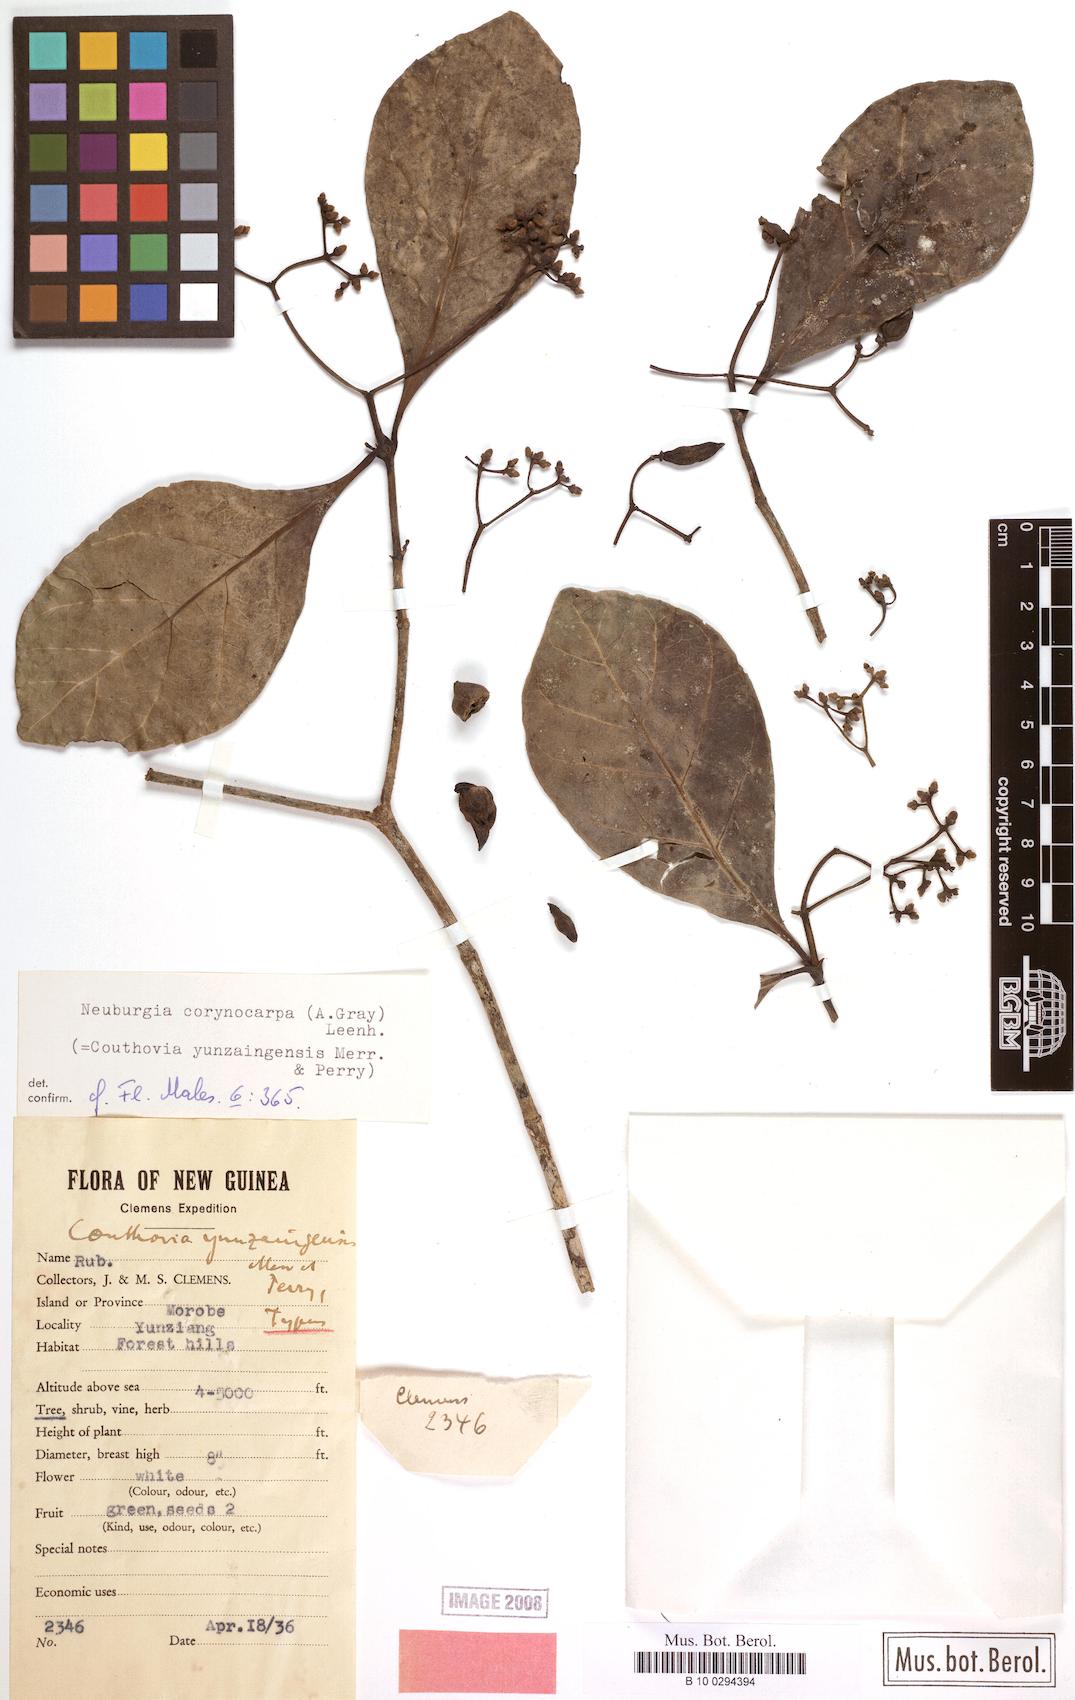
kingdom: Plantae
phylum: Tracheophyta
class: Magnoliopsida
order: Gentianales
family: Loganiaceae
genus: Neuburgia
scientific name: Neuburgia corynocarpa
